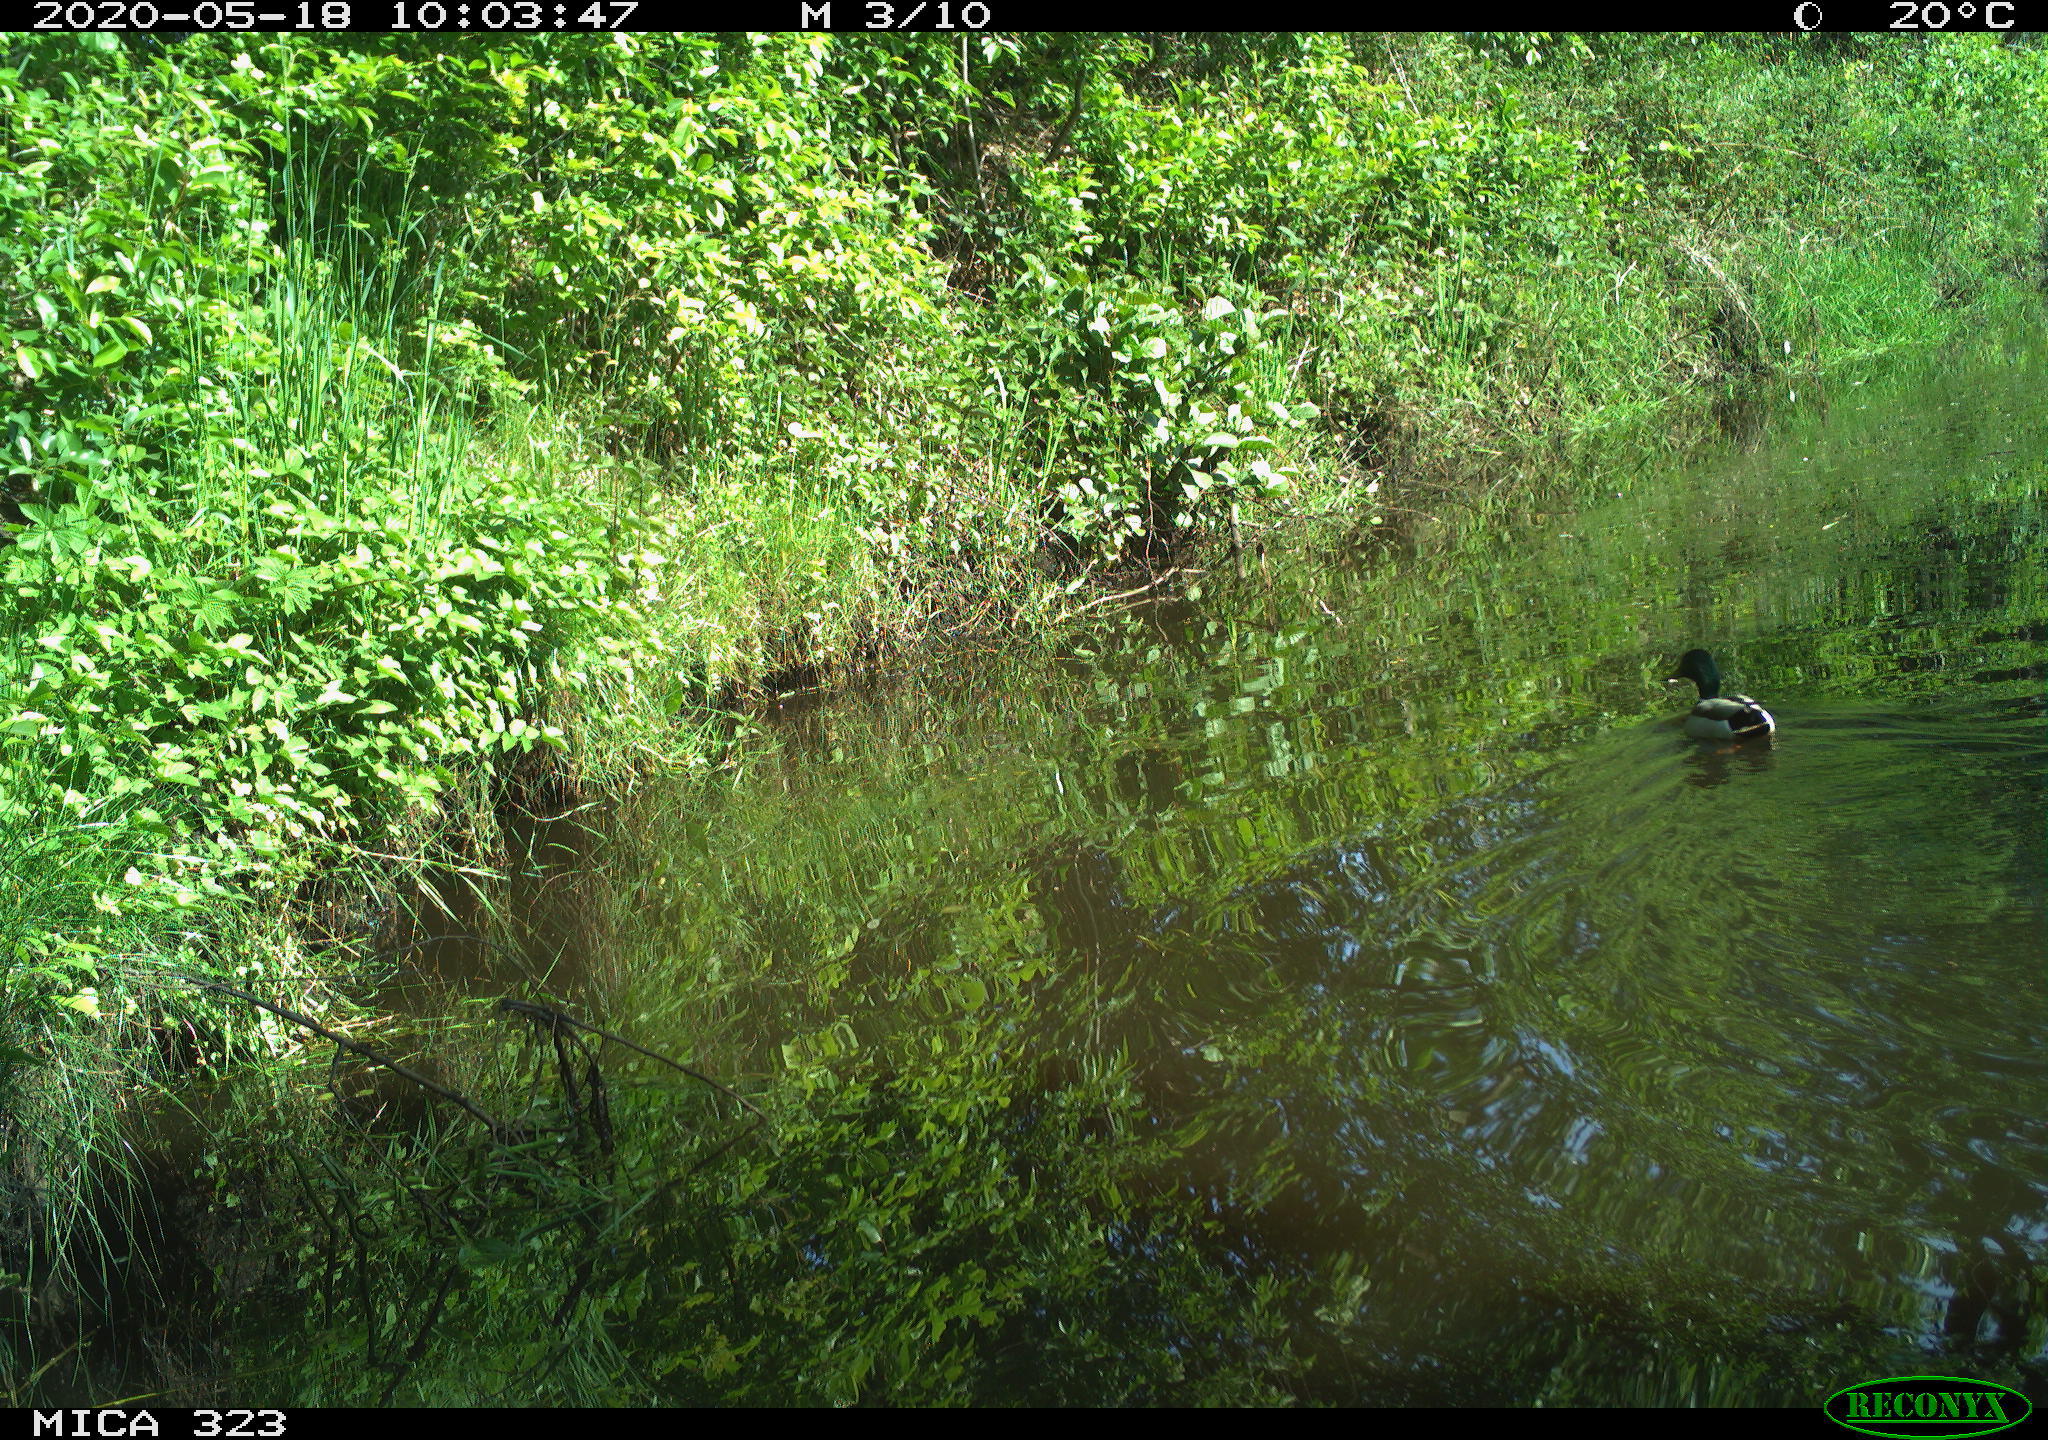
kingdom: Animalia
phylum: Chordata
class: Aves
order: Anseriformes
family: Anatidae
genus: Anas
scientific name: Anas platyrhynchos
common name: Mallard
